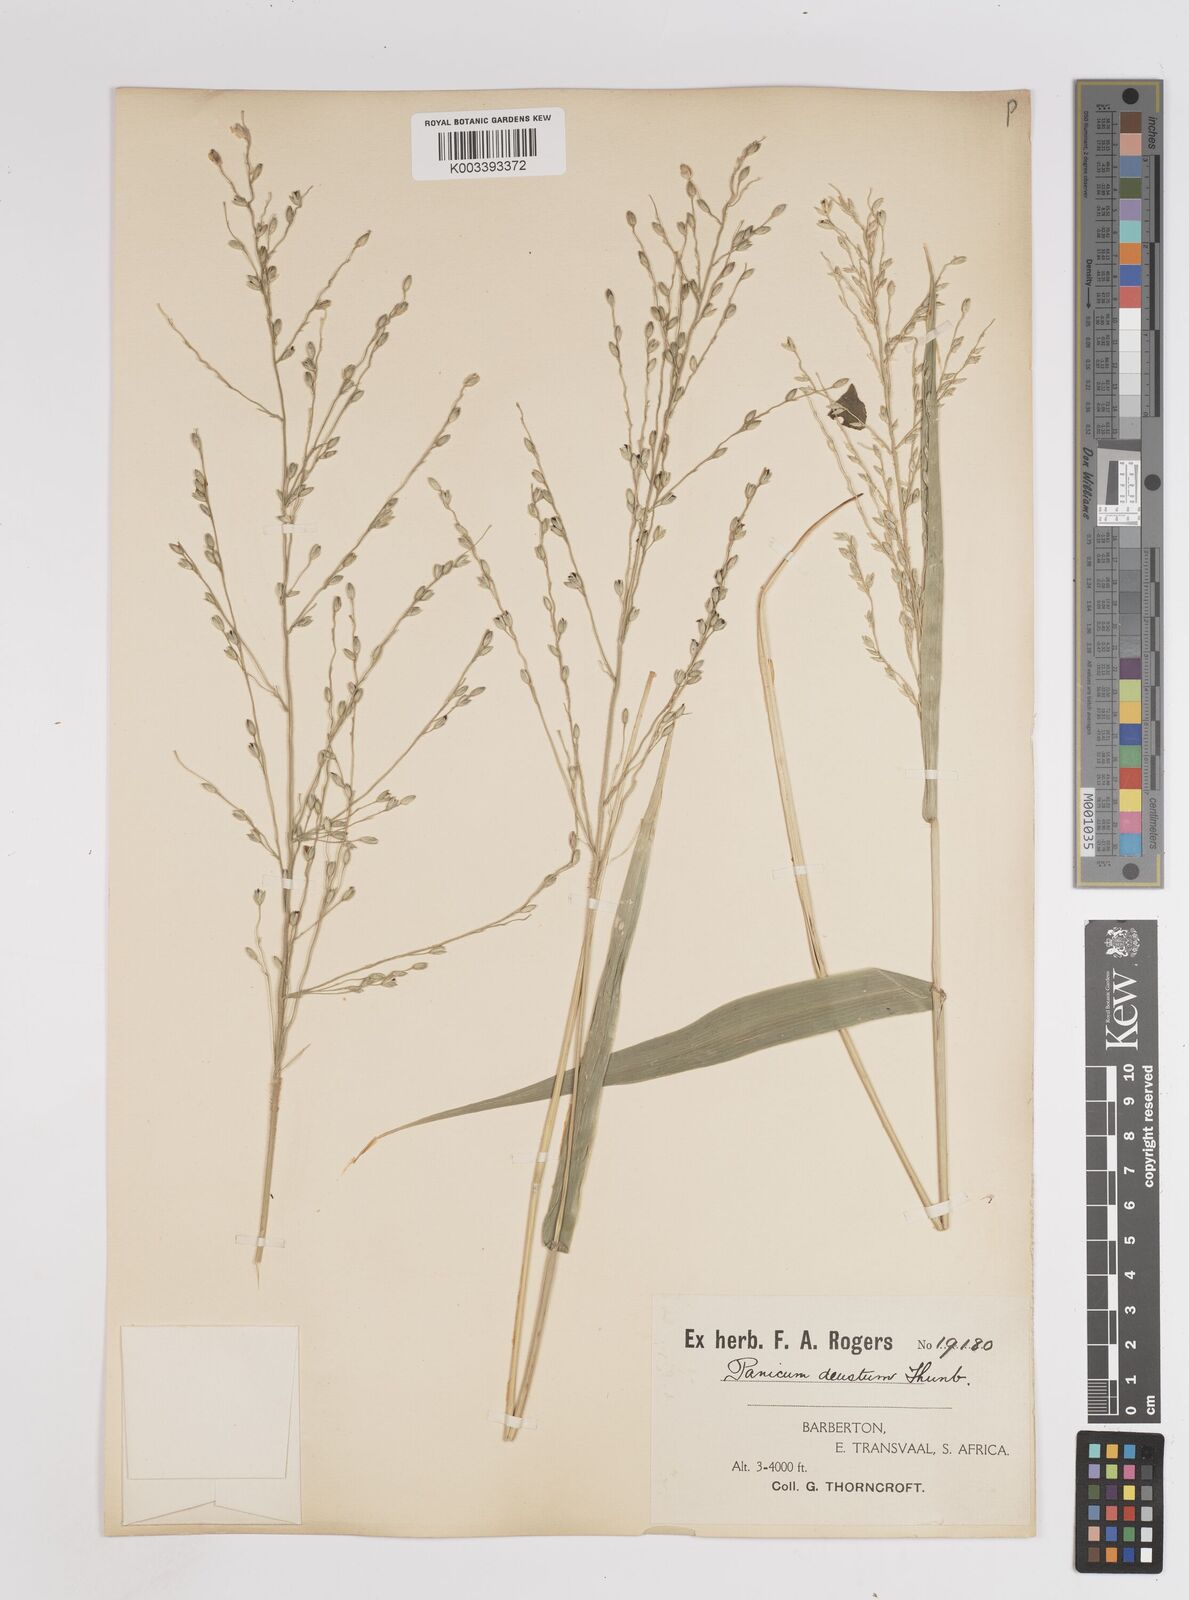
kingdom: Plantae
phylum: Tracheophyta
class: Liliopsida
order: Poales
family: Poaceae
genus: Panicum
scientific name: Panicum deustum
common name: Reed panicum
